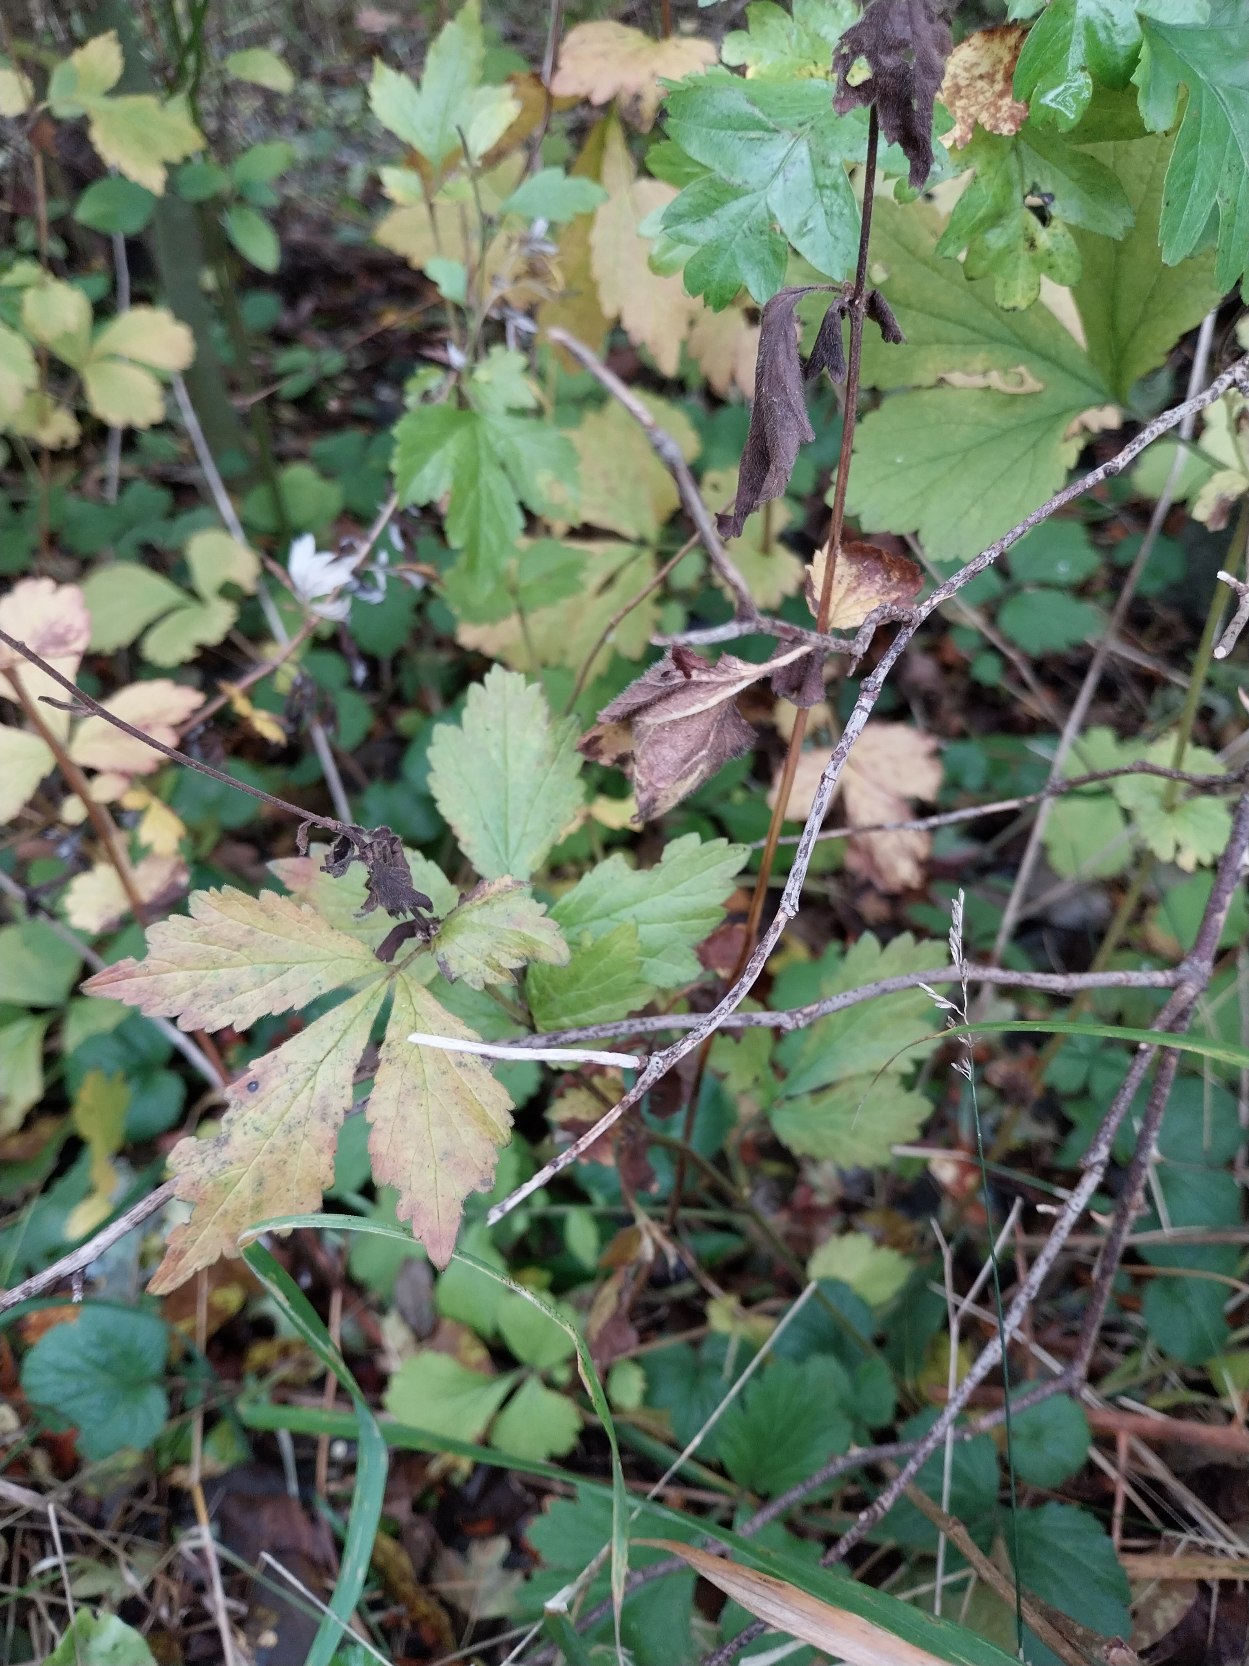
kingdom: Plantae
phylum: Tracheophyta
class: Magnoliopsida
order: Rosales
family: Rosaceae
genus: Geum
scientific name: Geum urbanum
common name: Feber-nellikerod
